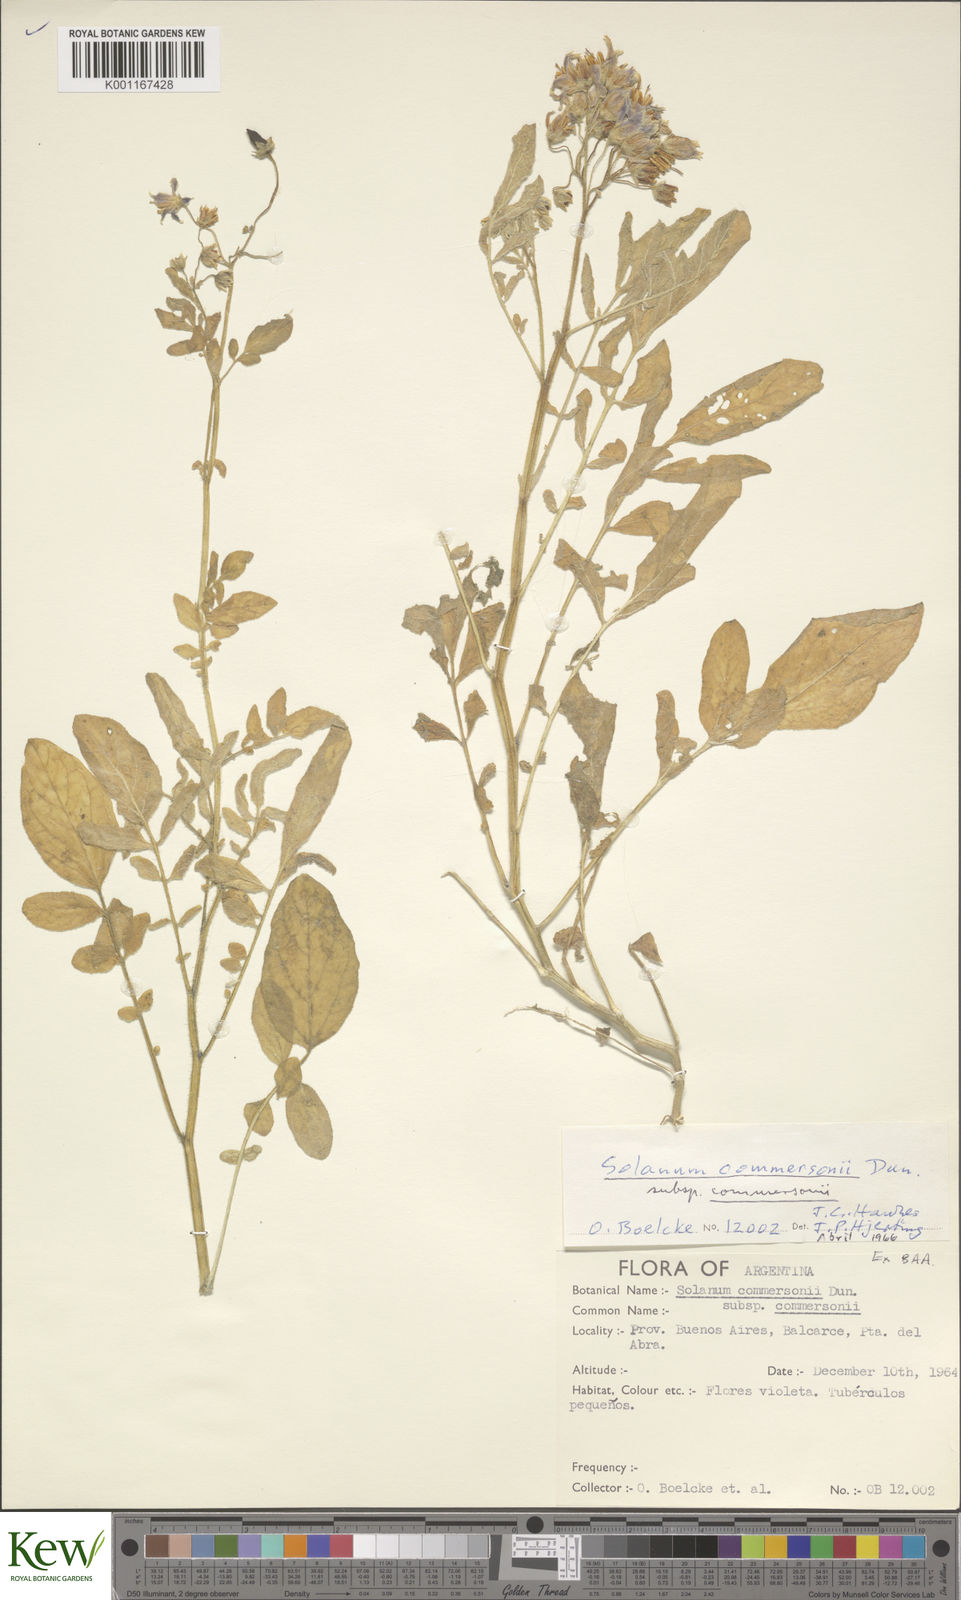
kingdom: Plantae
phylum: Tracheophyta
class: Magnoliopsida
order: Solanales
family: Solanaceae
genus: Solanum
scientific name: Solanum commersonii
